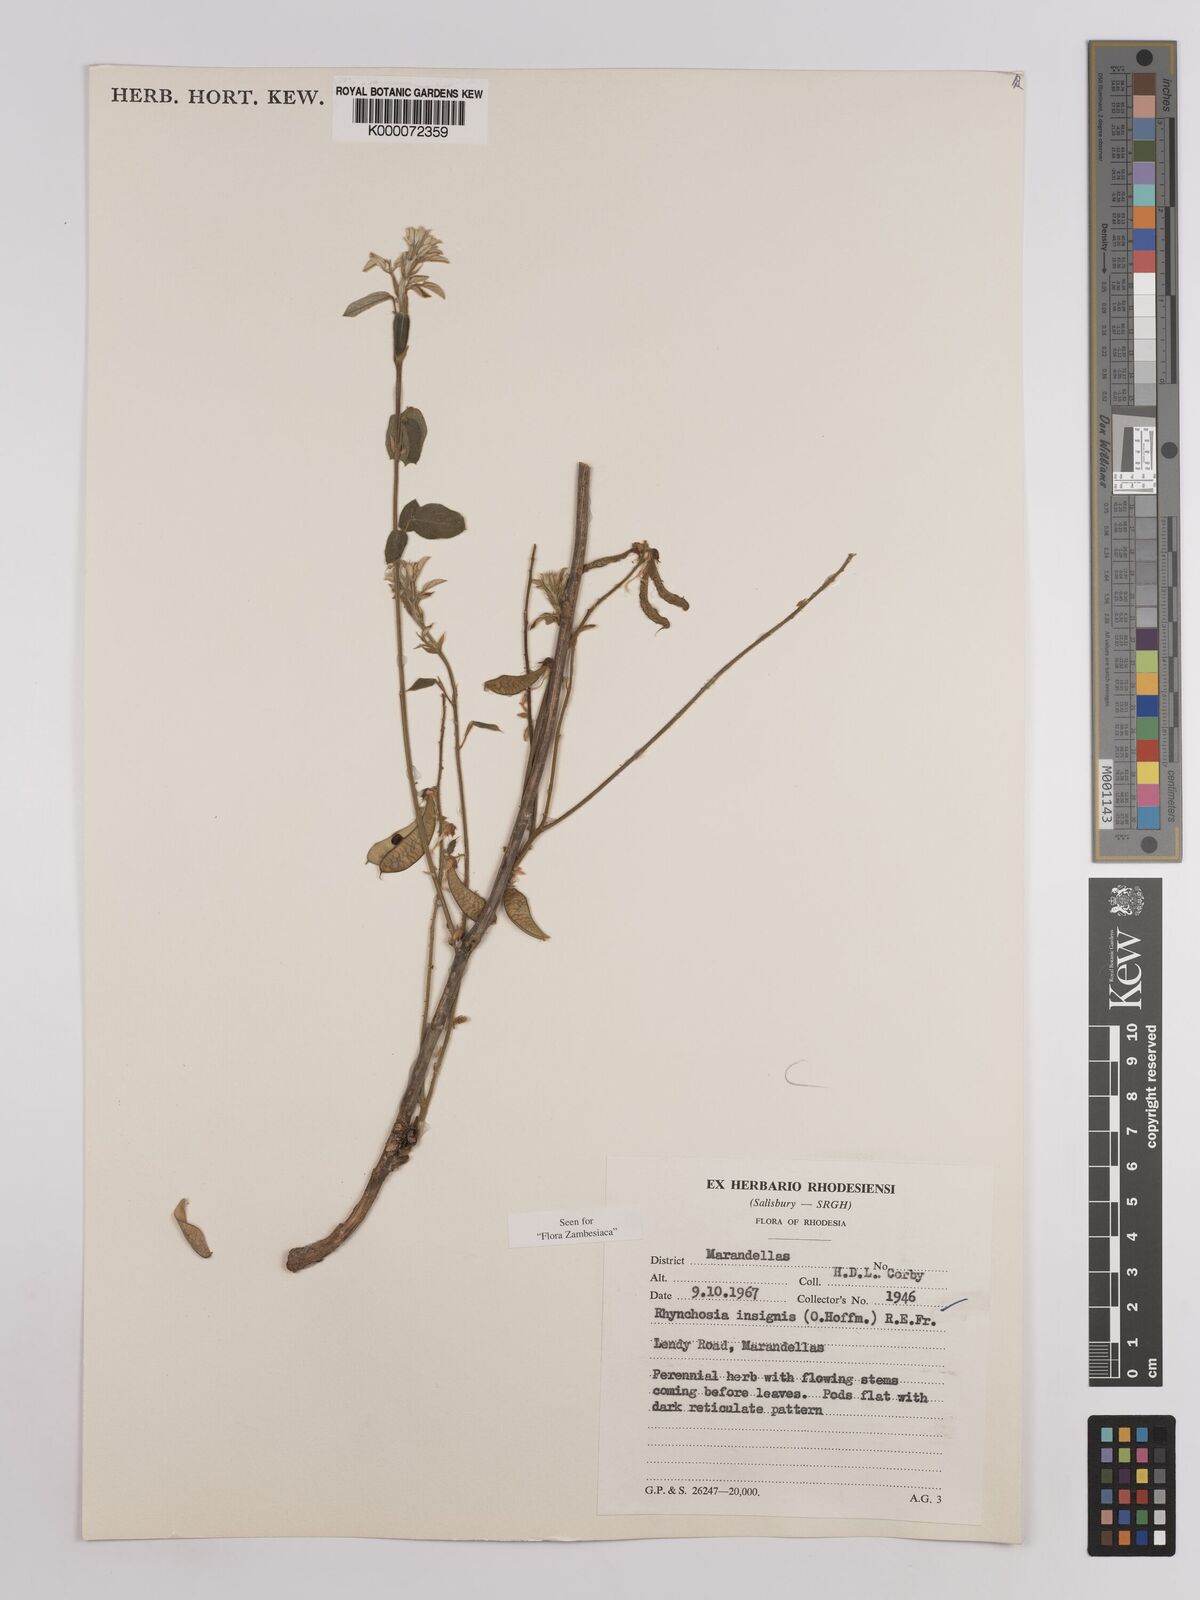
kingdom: Plantae
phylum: Tracheophyta
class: Magnoliopsida
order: Fabales
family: Fabaceae
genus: Rhynchosia
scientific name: Rhynchosia insignis
